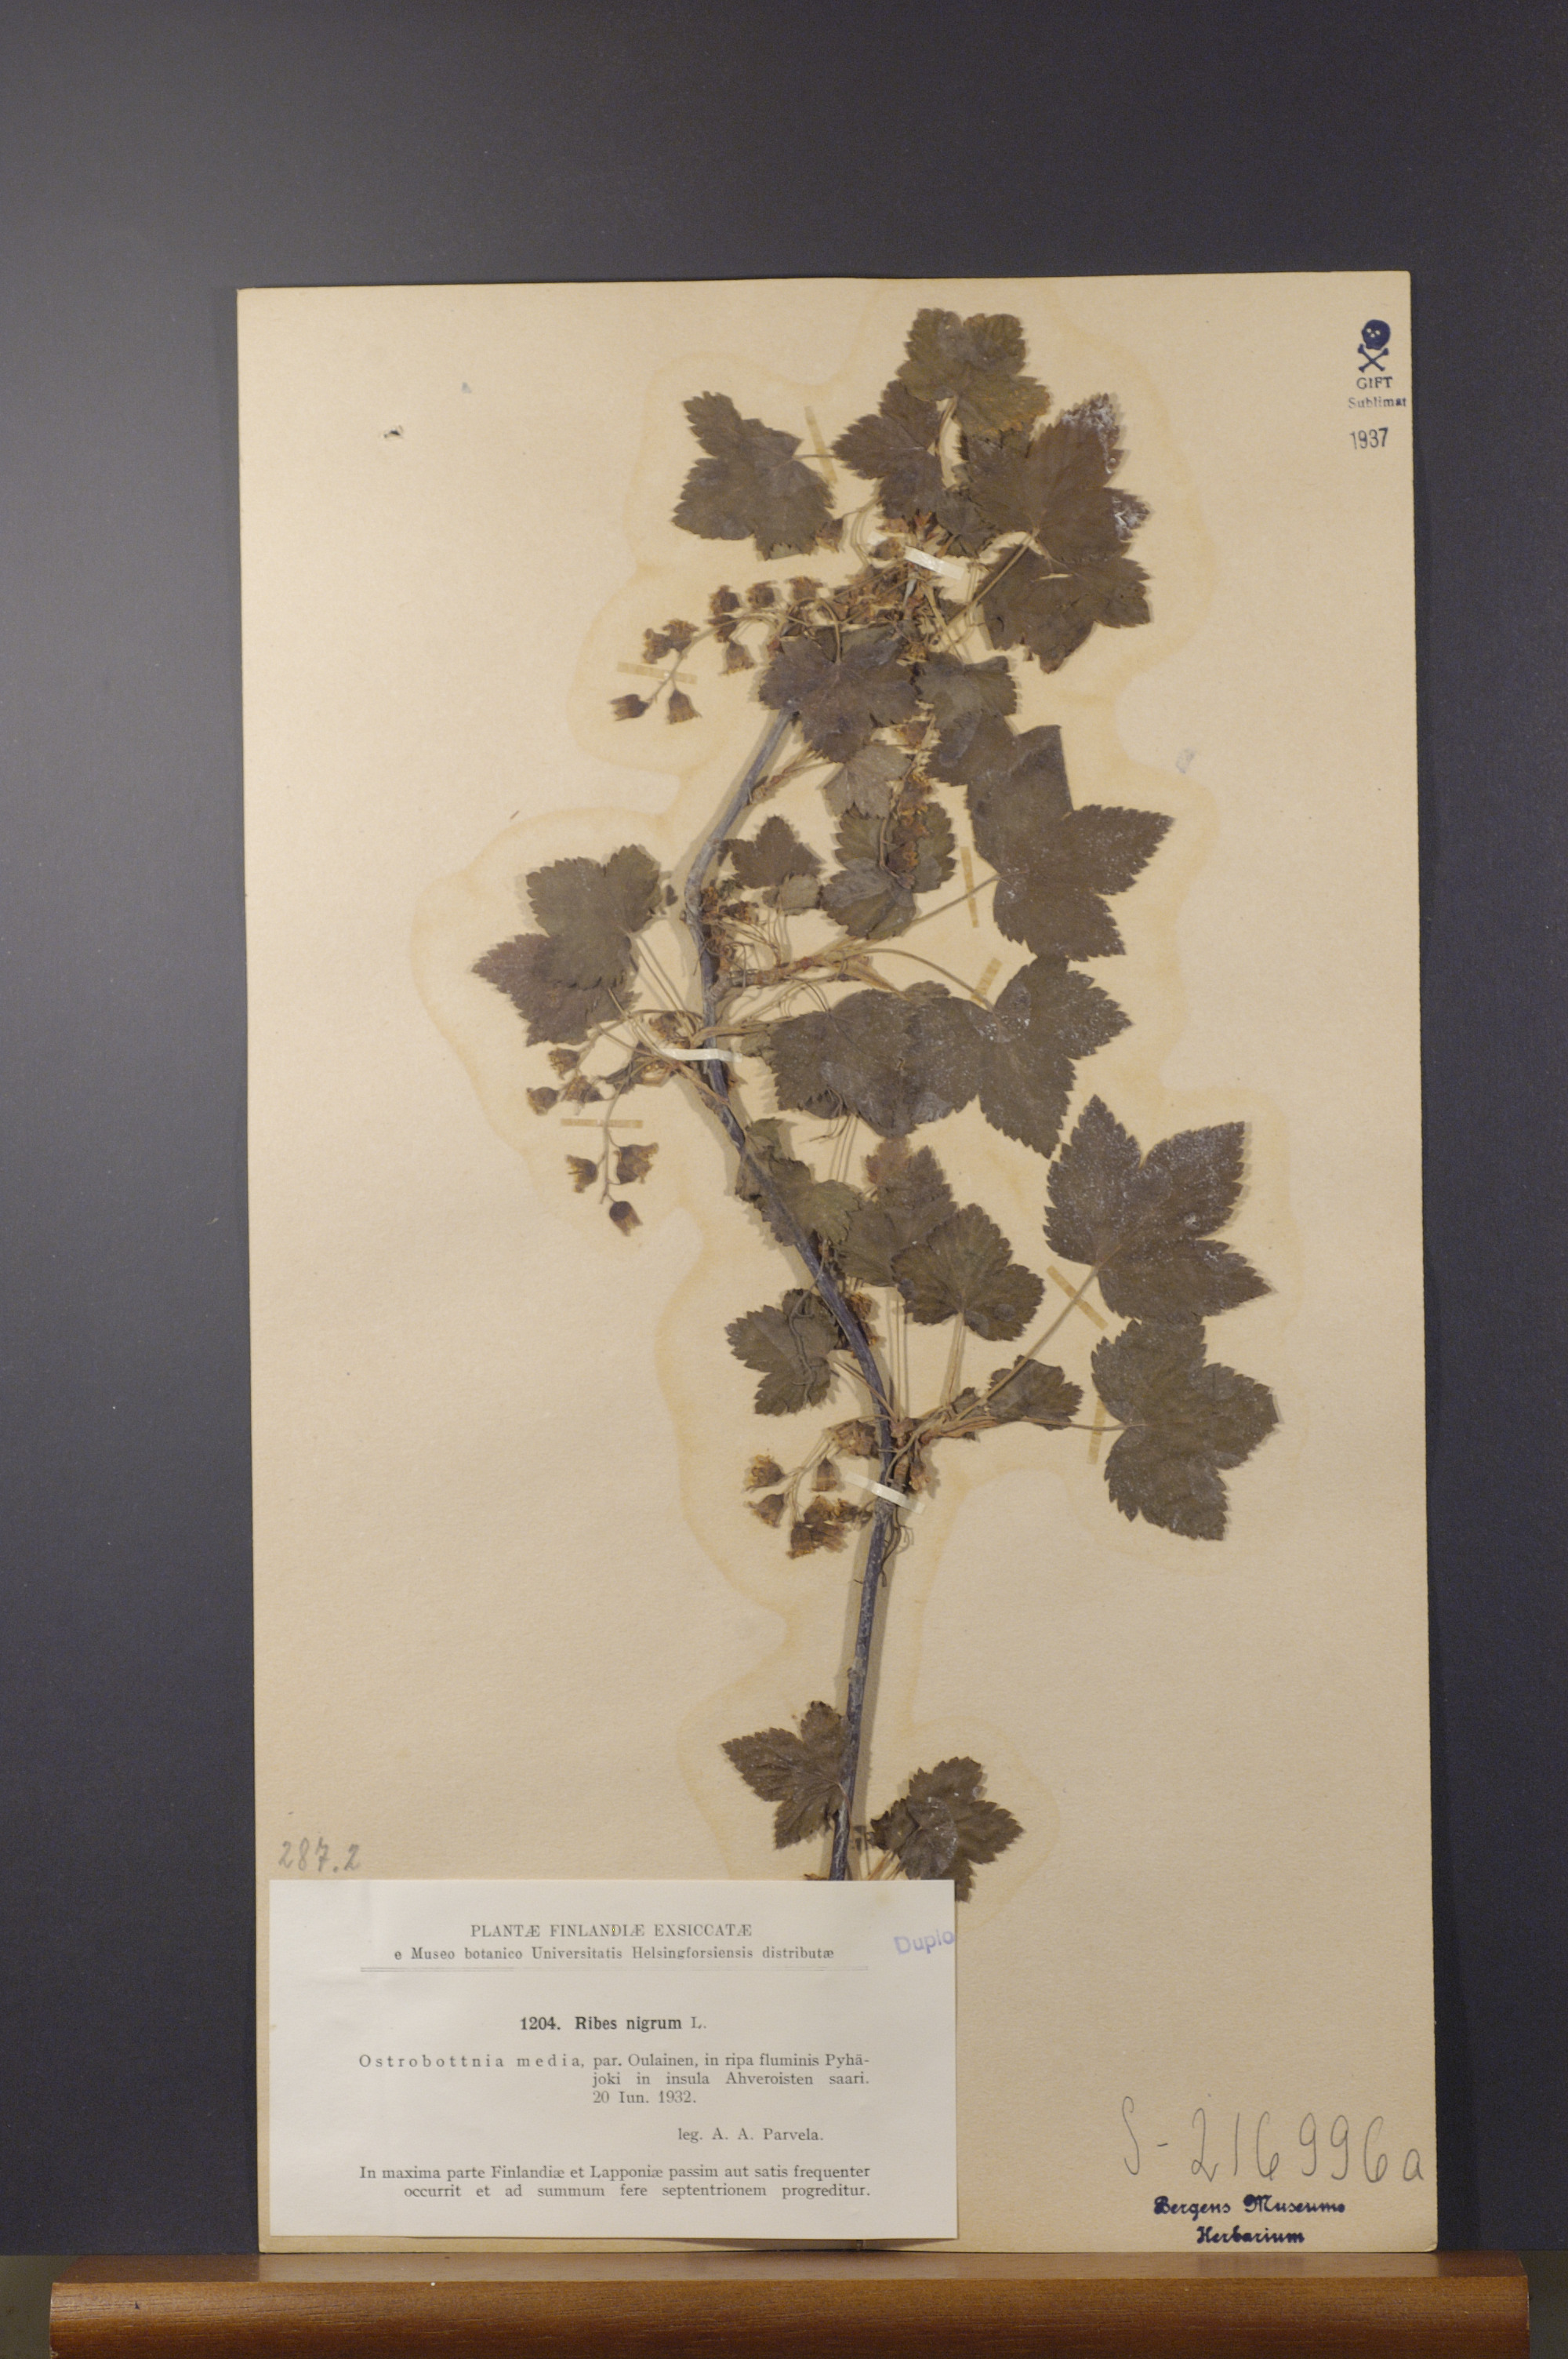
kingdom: Plantae
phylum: Tracheophyta
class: Magnoliopsida
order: Saxifragales
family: Grossulariaceae
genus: Ribes
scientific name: Ribes nigrum
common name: Black currant
